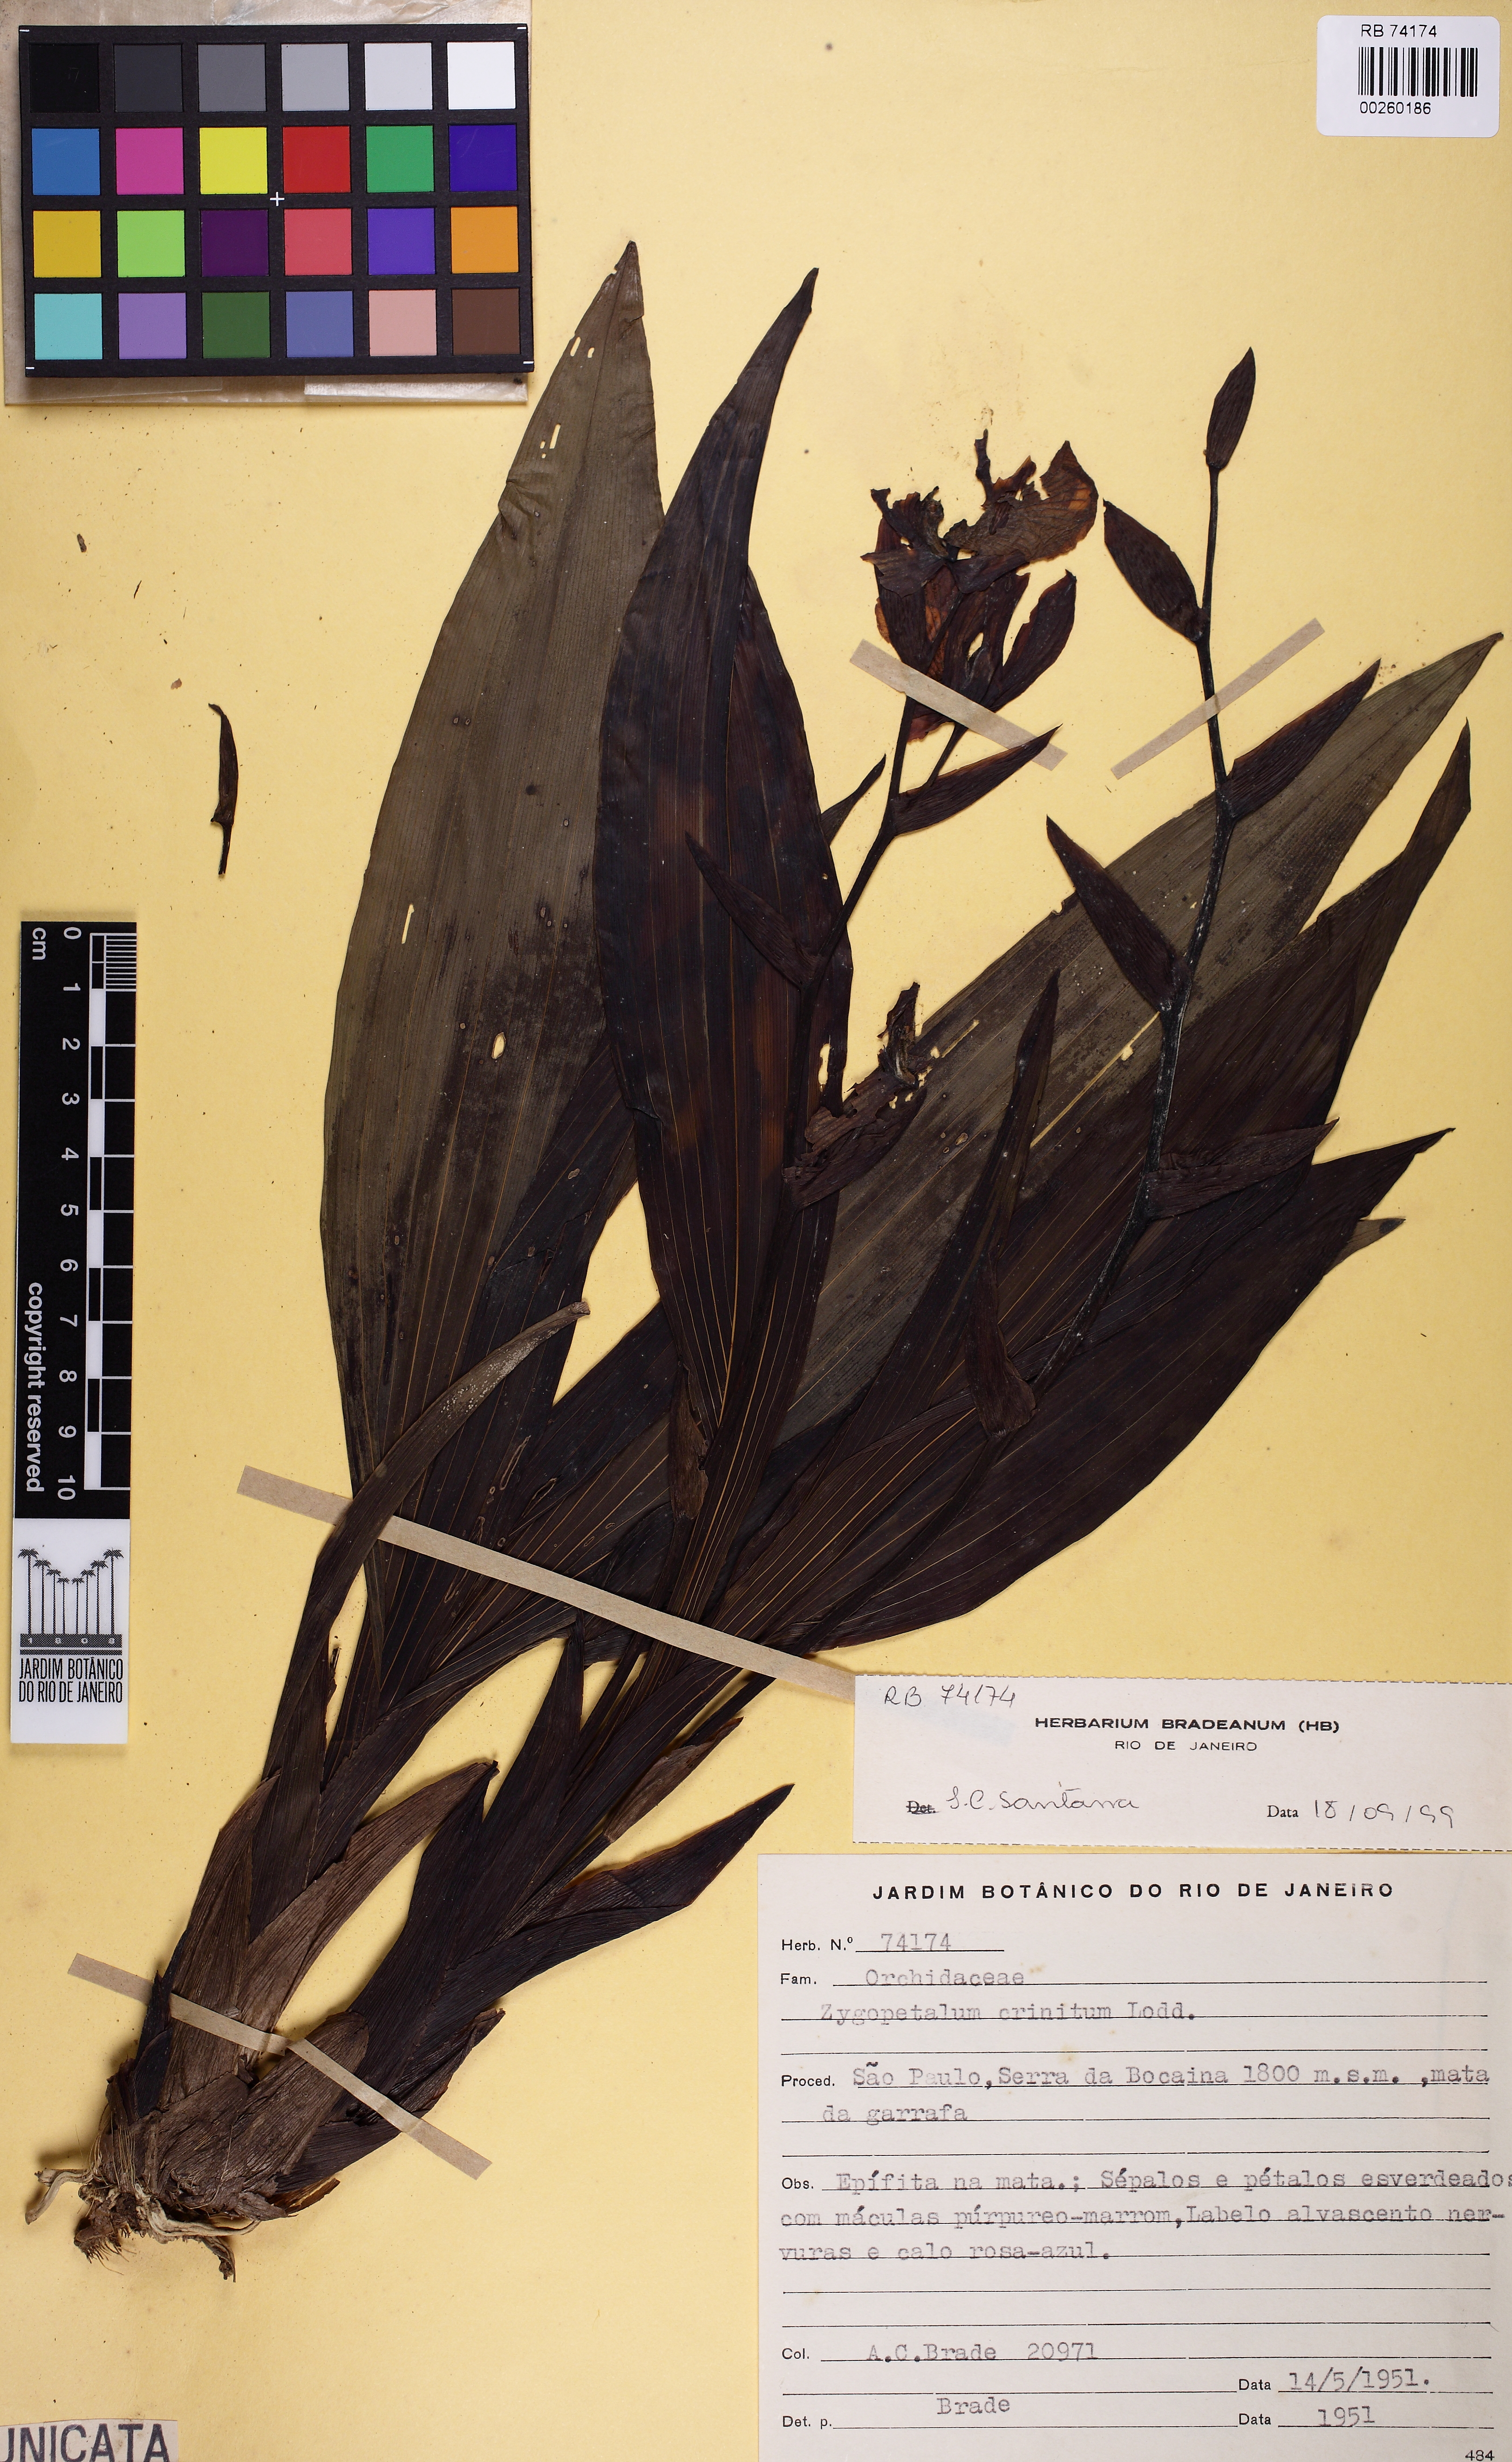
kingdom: Plantae
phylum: Tracheophyta
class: Liliopsida
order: Asparagales
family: Orchidaceae
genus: Zygopetalum
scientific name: Zygopetalum crinitum
